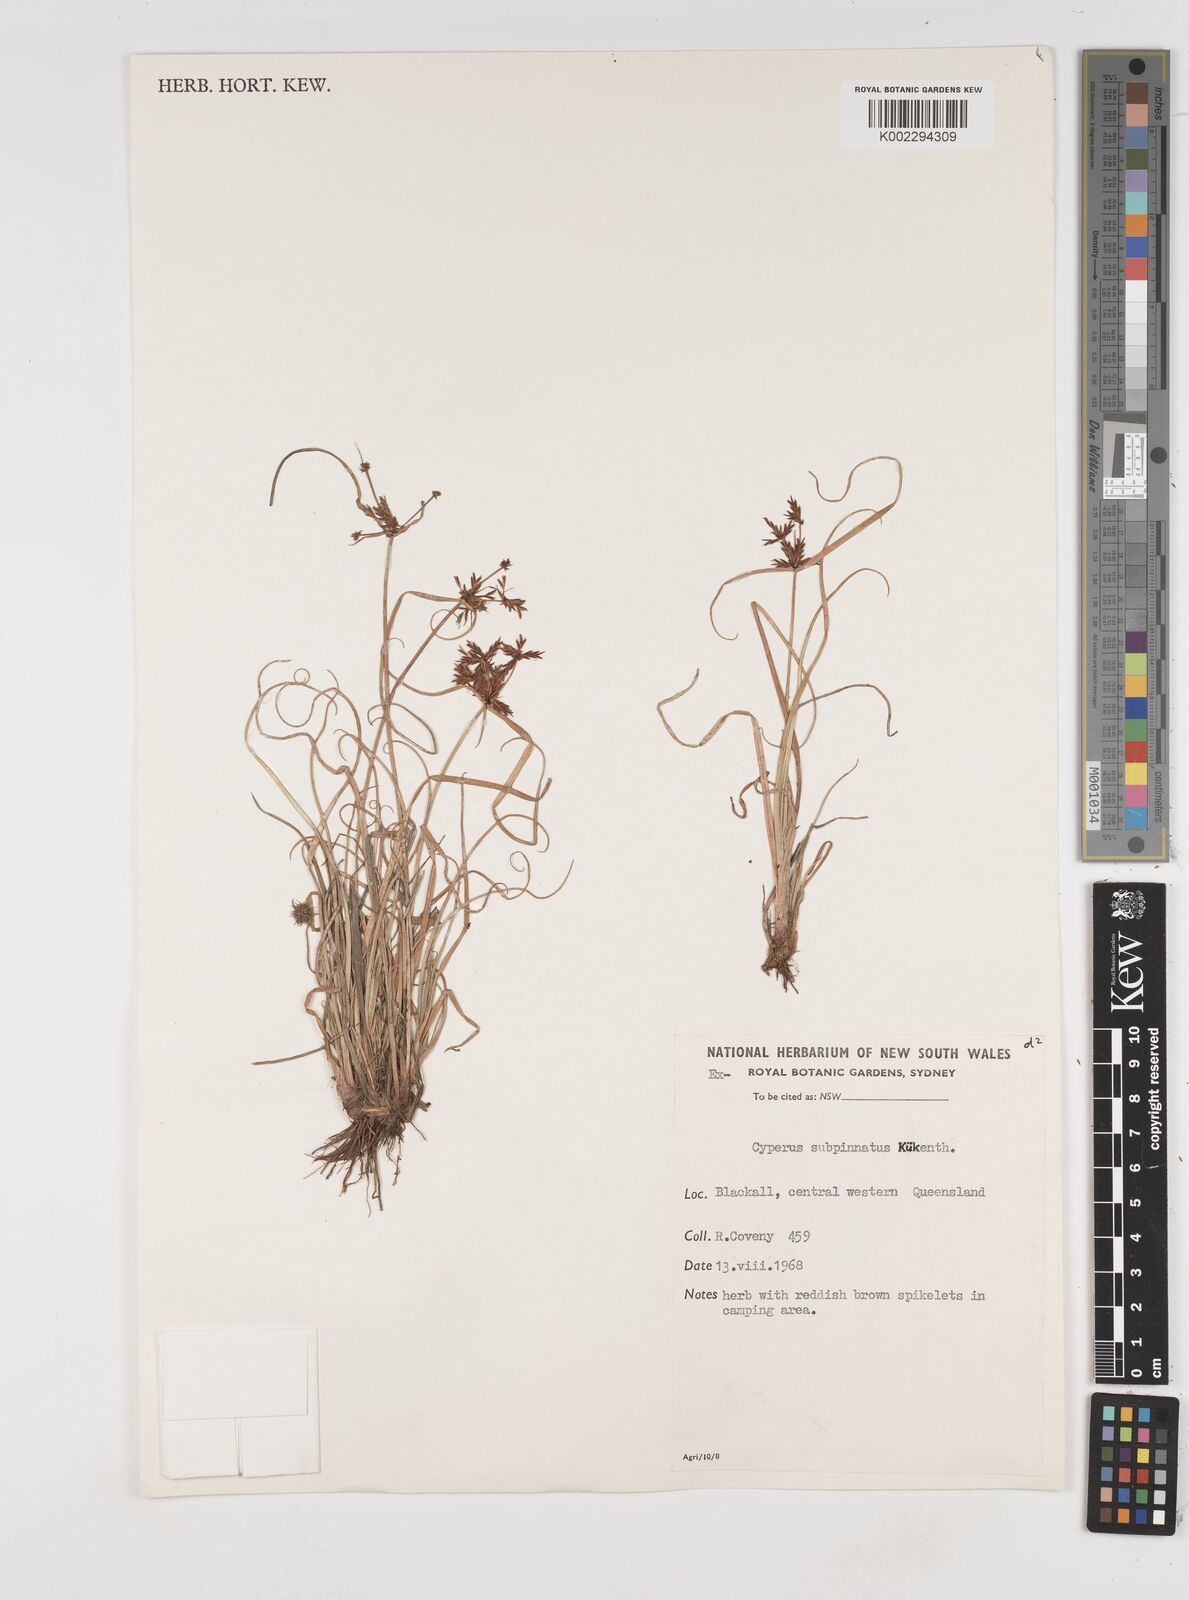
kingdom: Plantae
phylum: Tracheophyta
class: Liliopsida
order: Poales
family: Cyperaceae
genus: Cyperus
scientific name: Cyperus rigidellus
